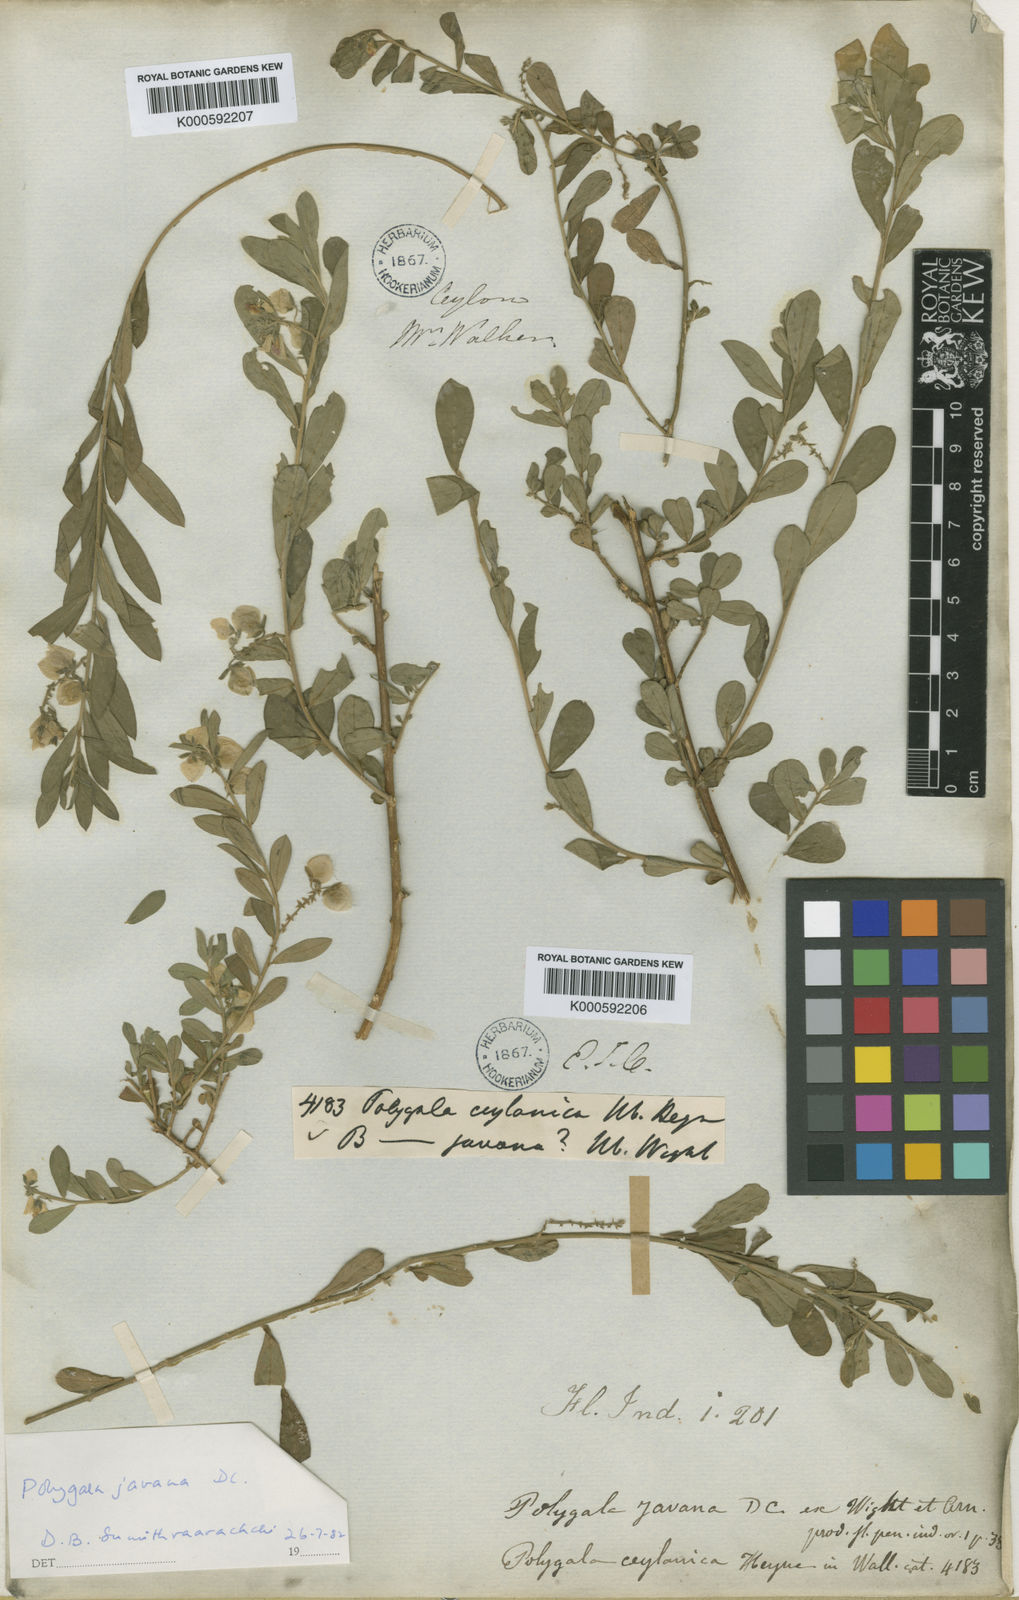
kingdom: Plantae
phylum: Tracheophyta
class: Magnoliopsida
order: Fabales
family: Polygalaceae
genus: Polygala
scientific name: Polygala javana
